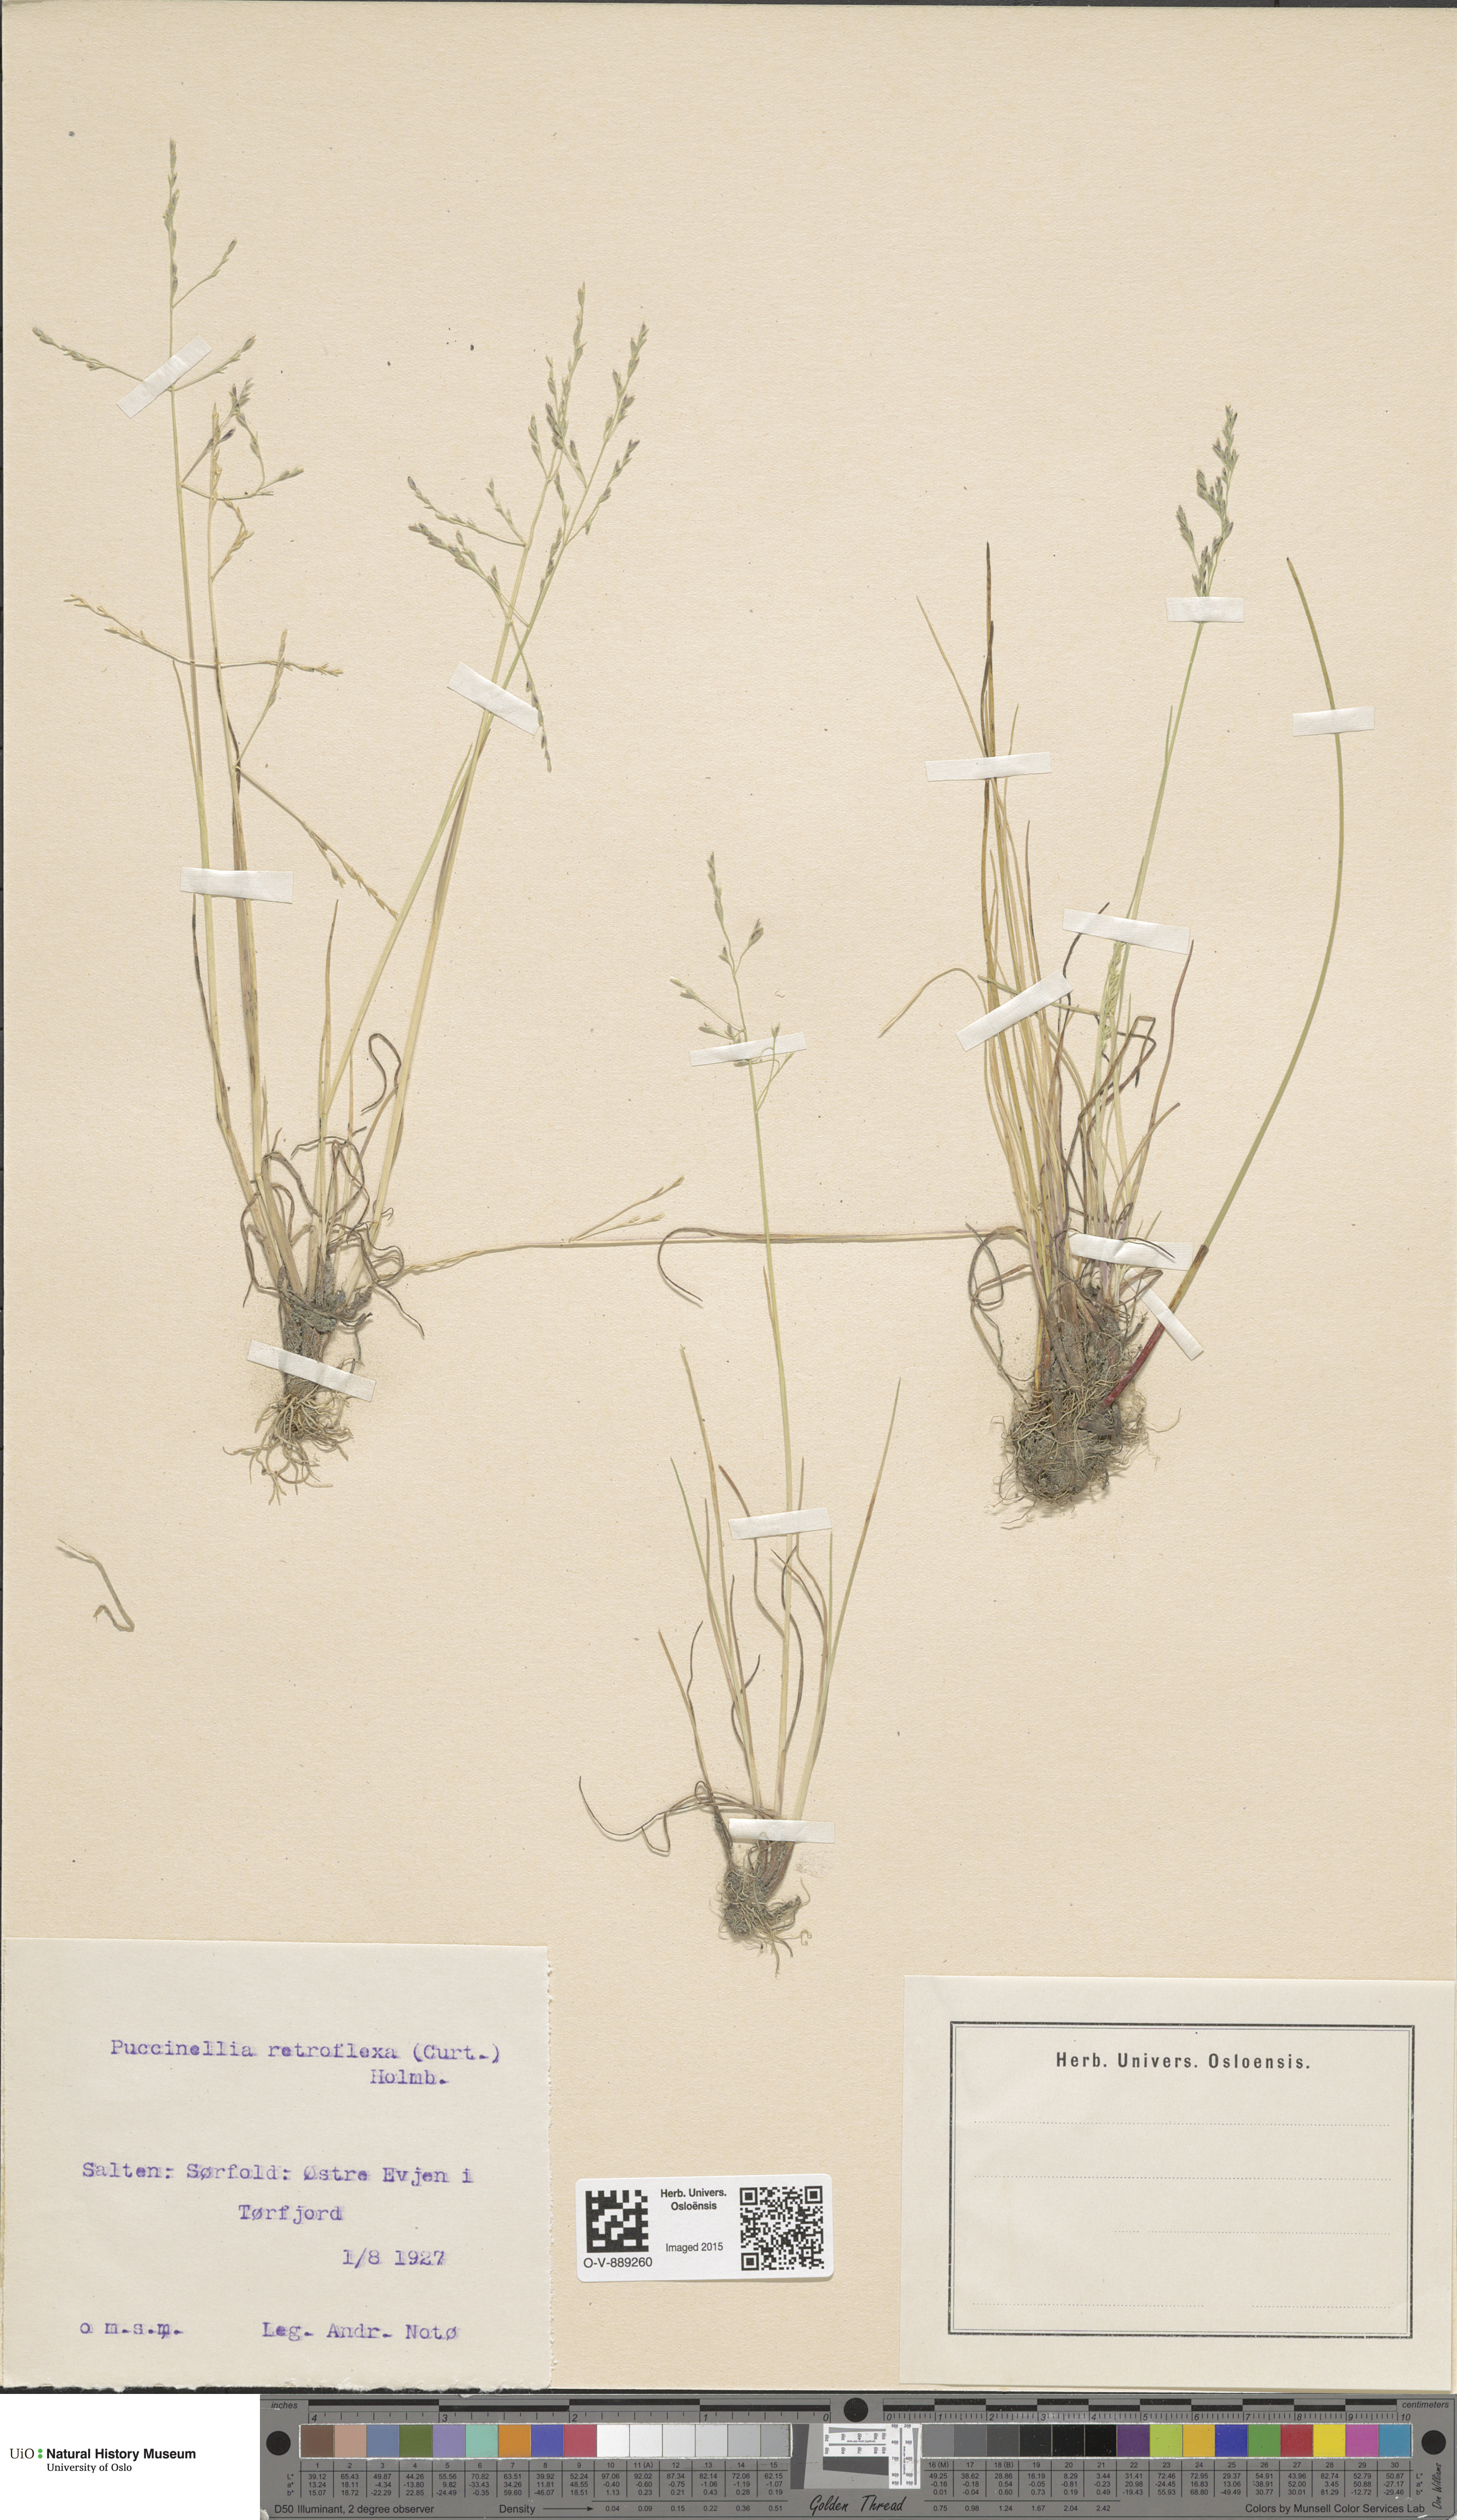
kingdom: Plantae
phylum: Tracheophyta
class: Liliopsida
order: Poales
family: Poaceae
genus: Puccinellia
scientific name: Puccinellia distans
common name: Weeping alkaligrass
